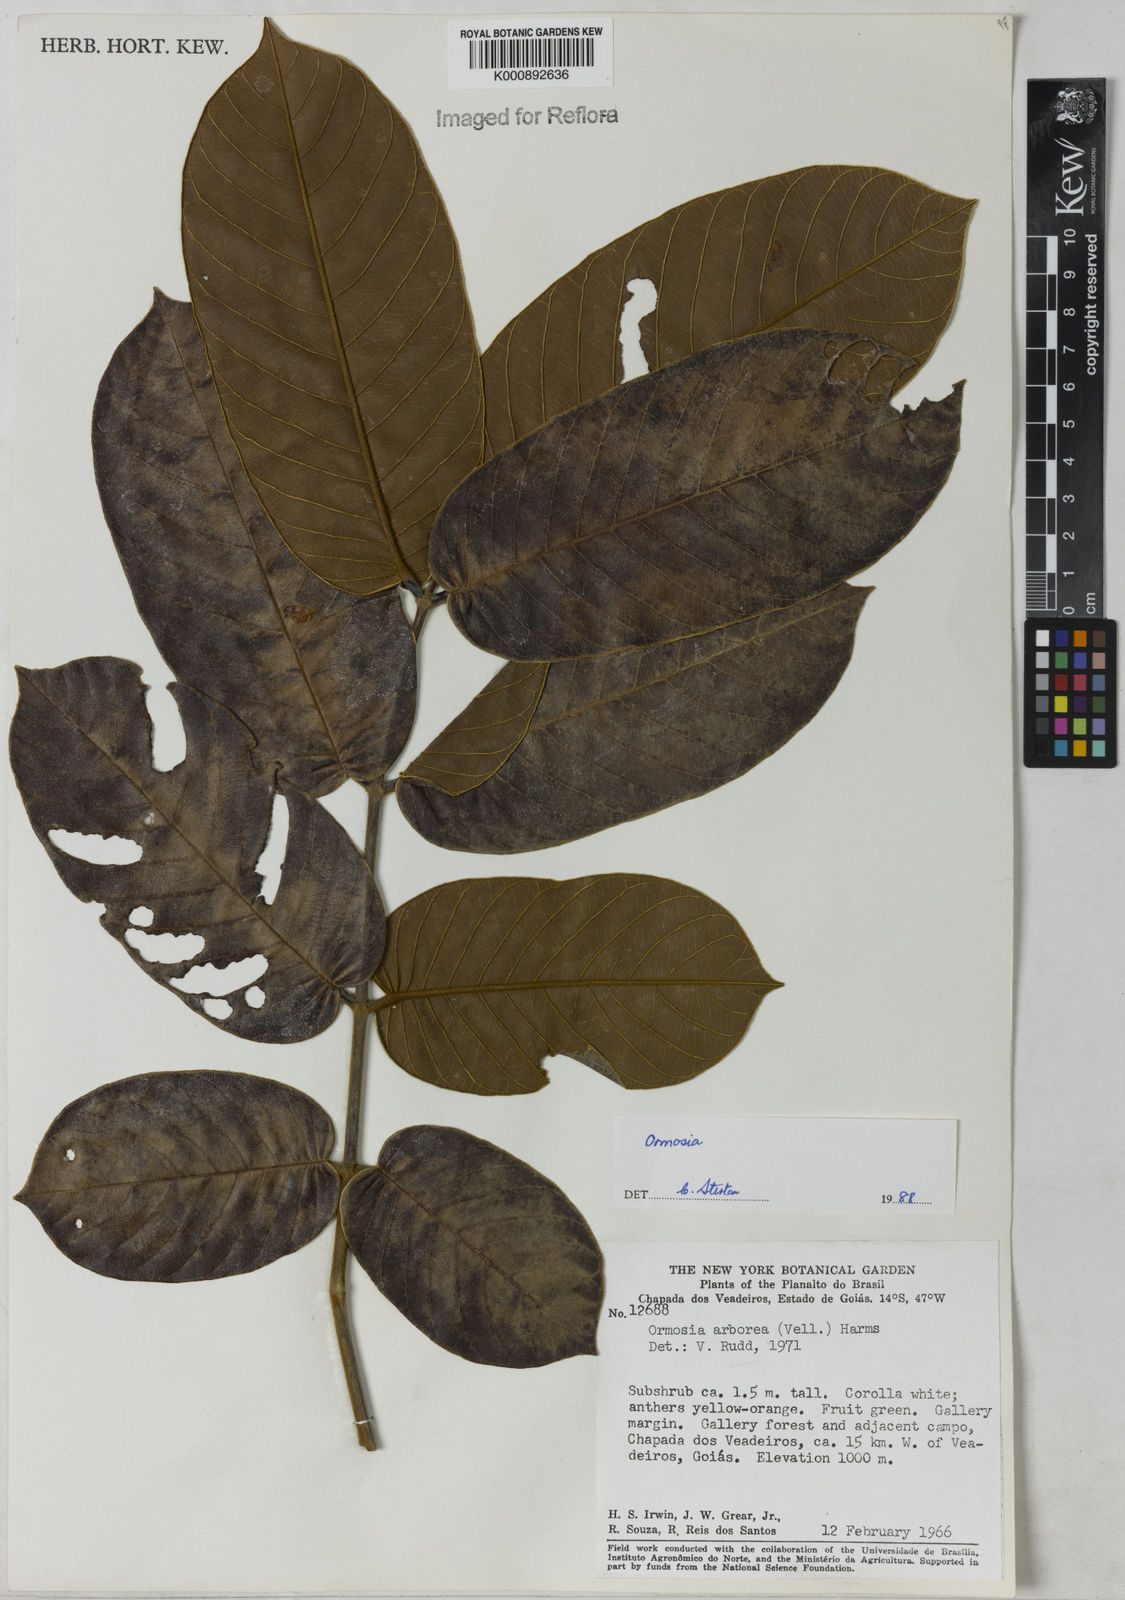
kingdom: Plantae
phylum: Tracheophyta
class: Magnoliopsida
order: Fabales
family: Fabaceae
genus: Ormosia
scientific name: Ormosia
